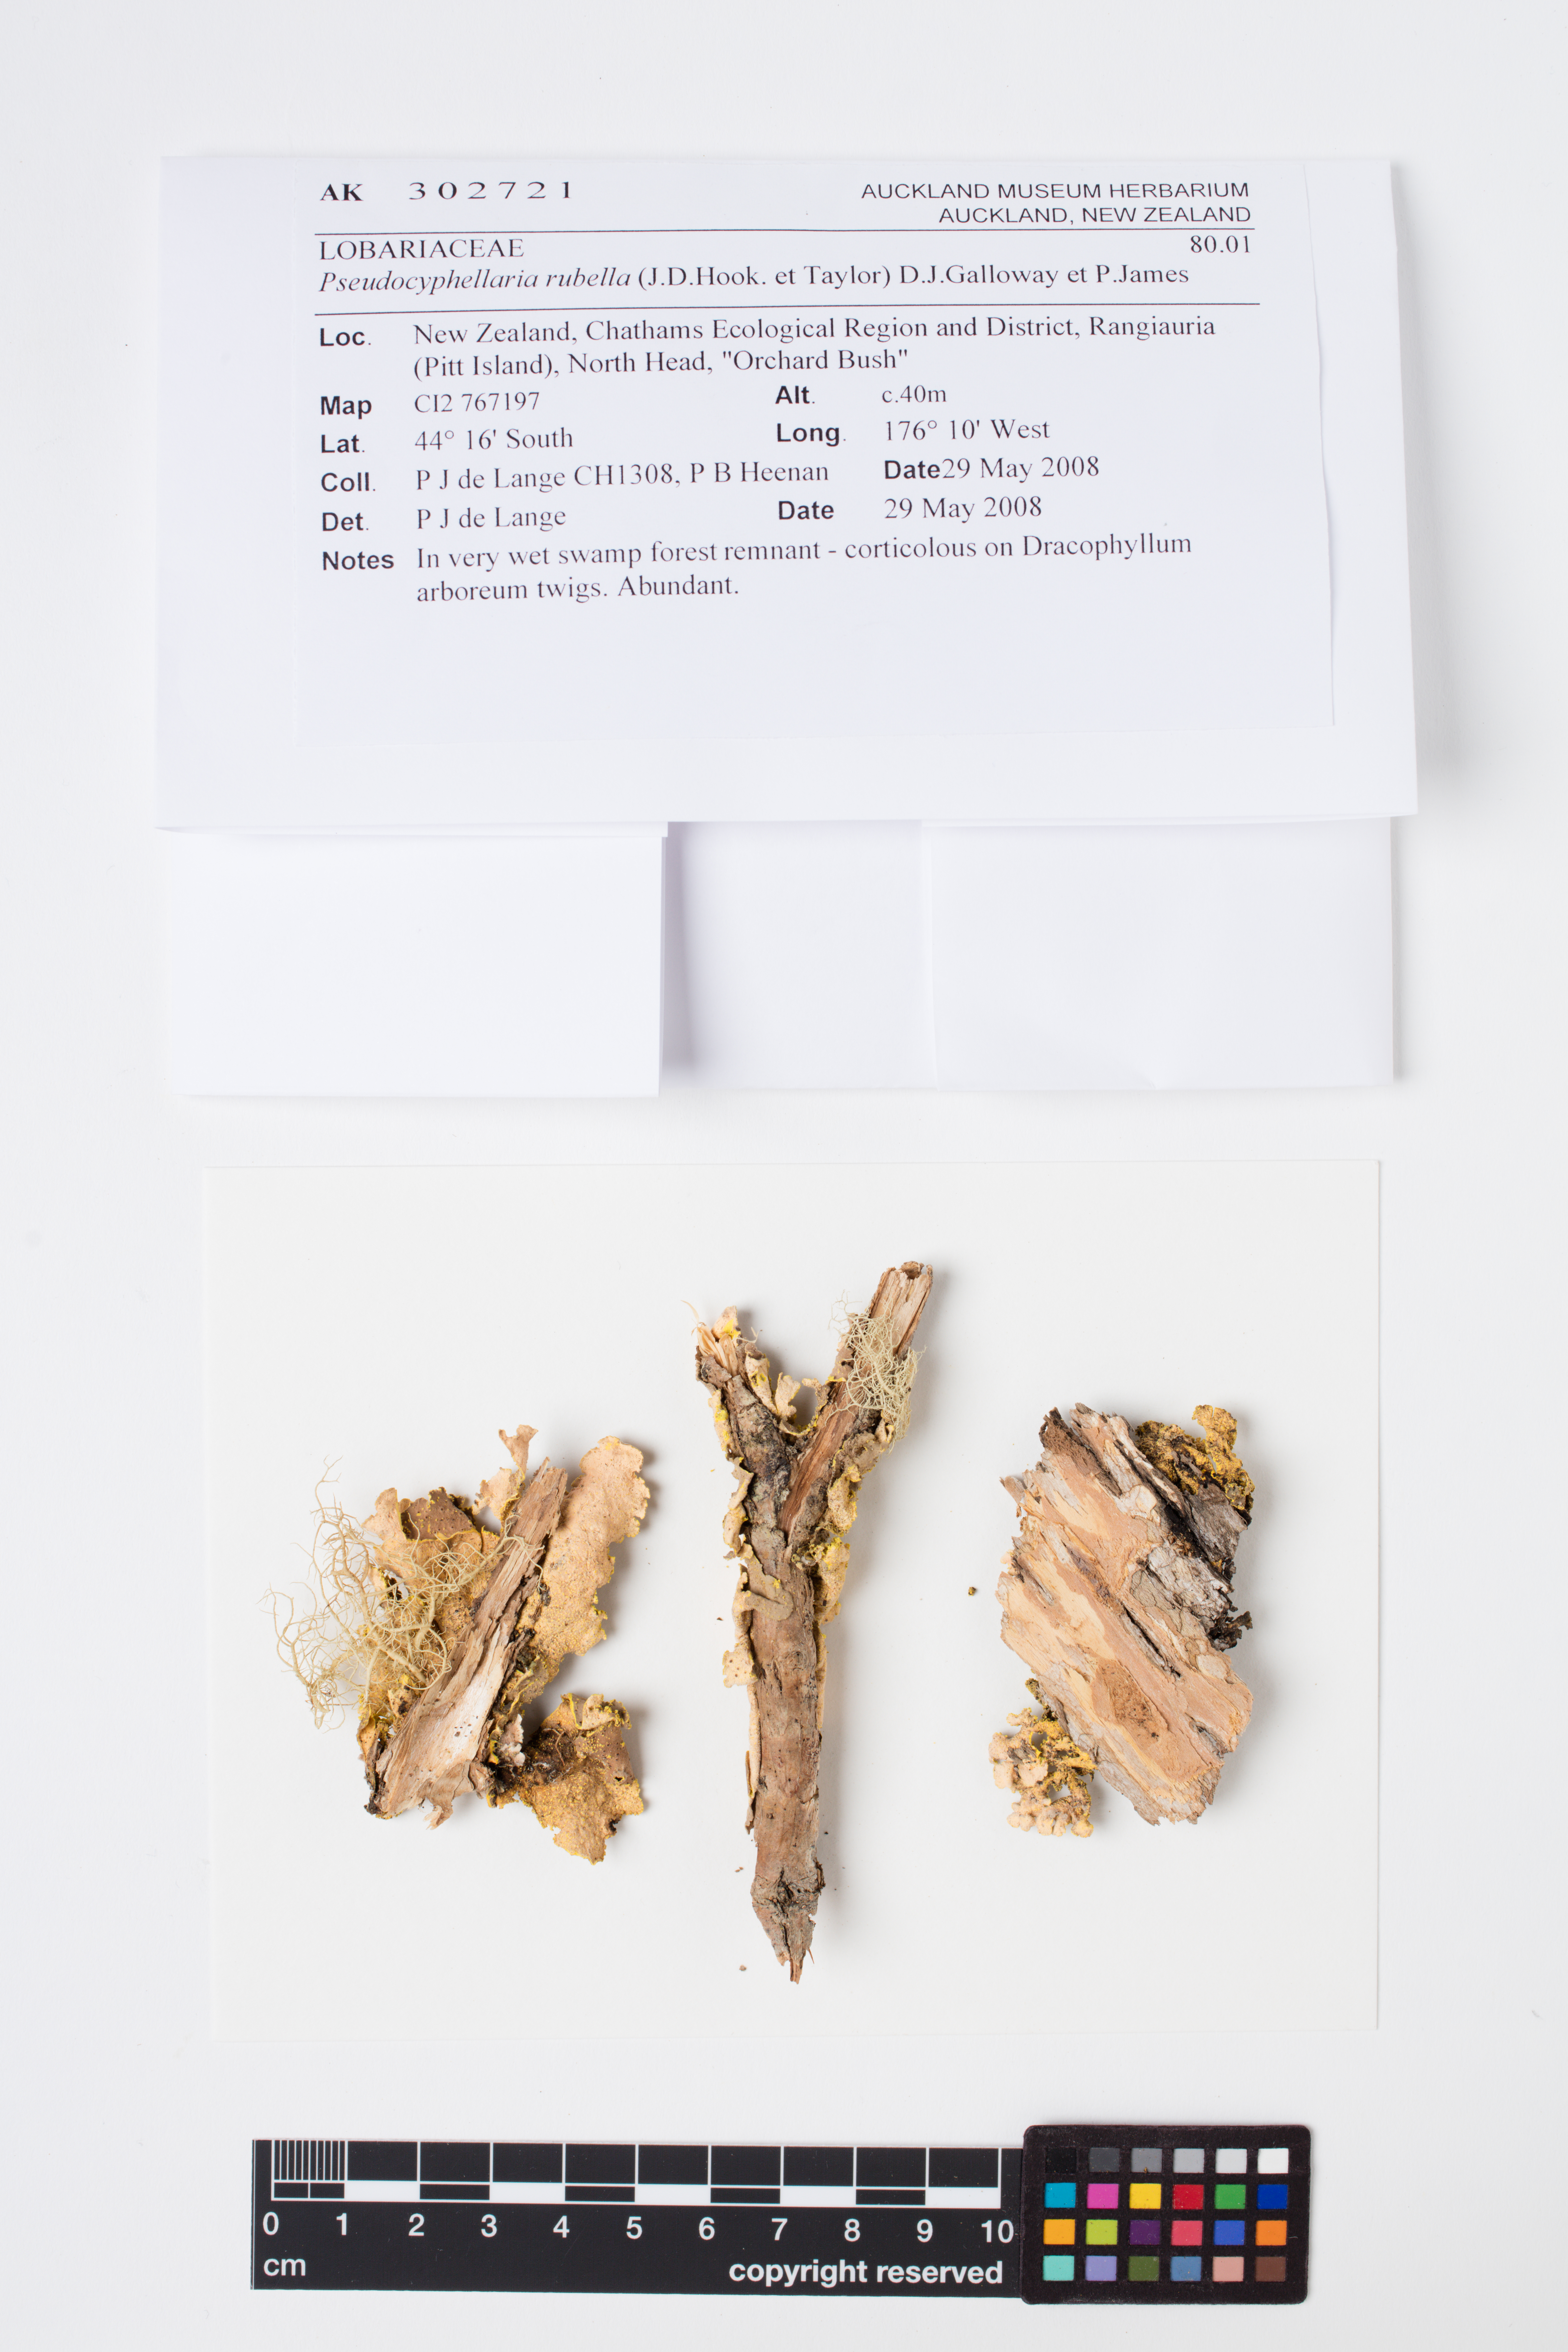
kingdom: Fungi
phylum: Ascomycota
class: Lecanoromycetes
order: Peltigerales
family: Lobariaceae
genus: Pseudocyphellaria
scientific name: Pseudocyphellaria rubella
